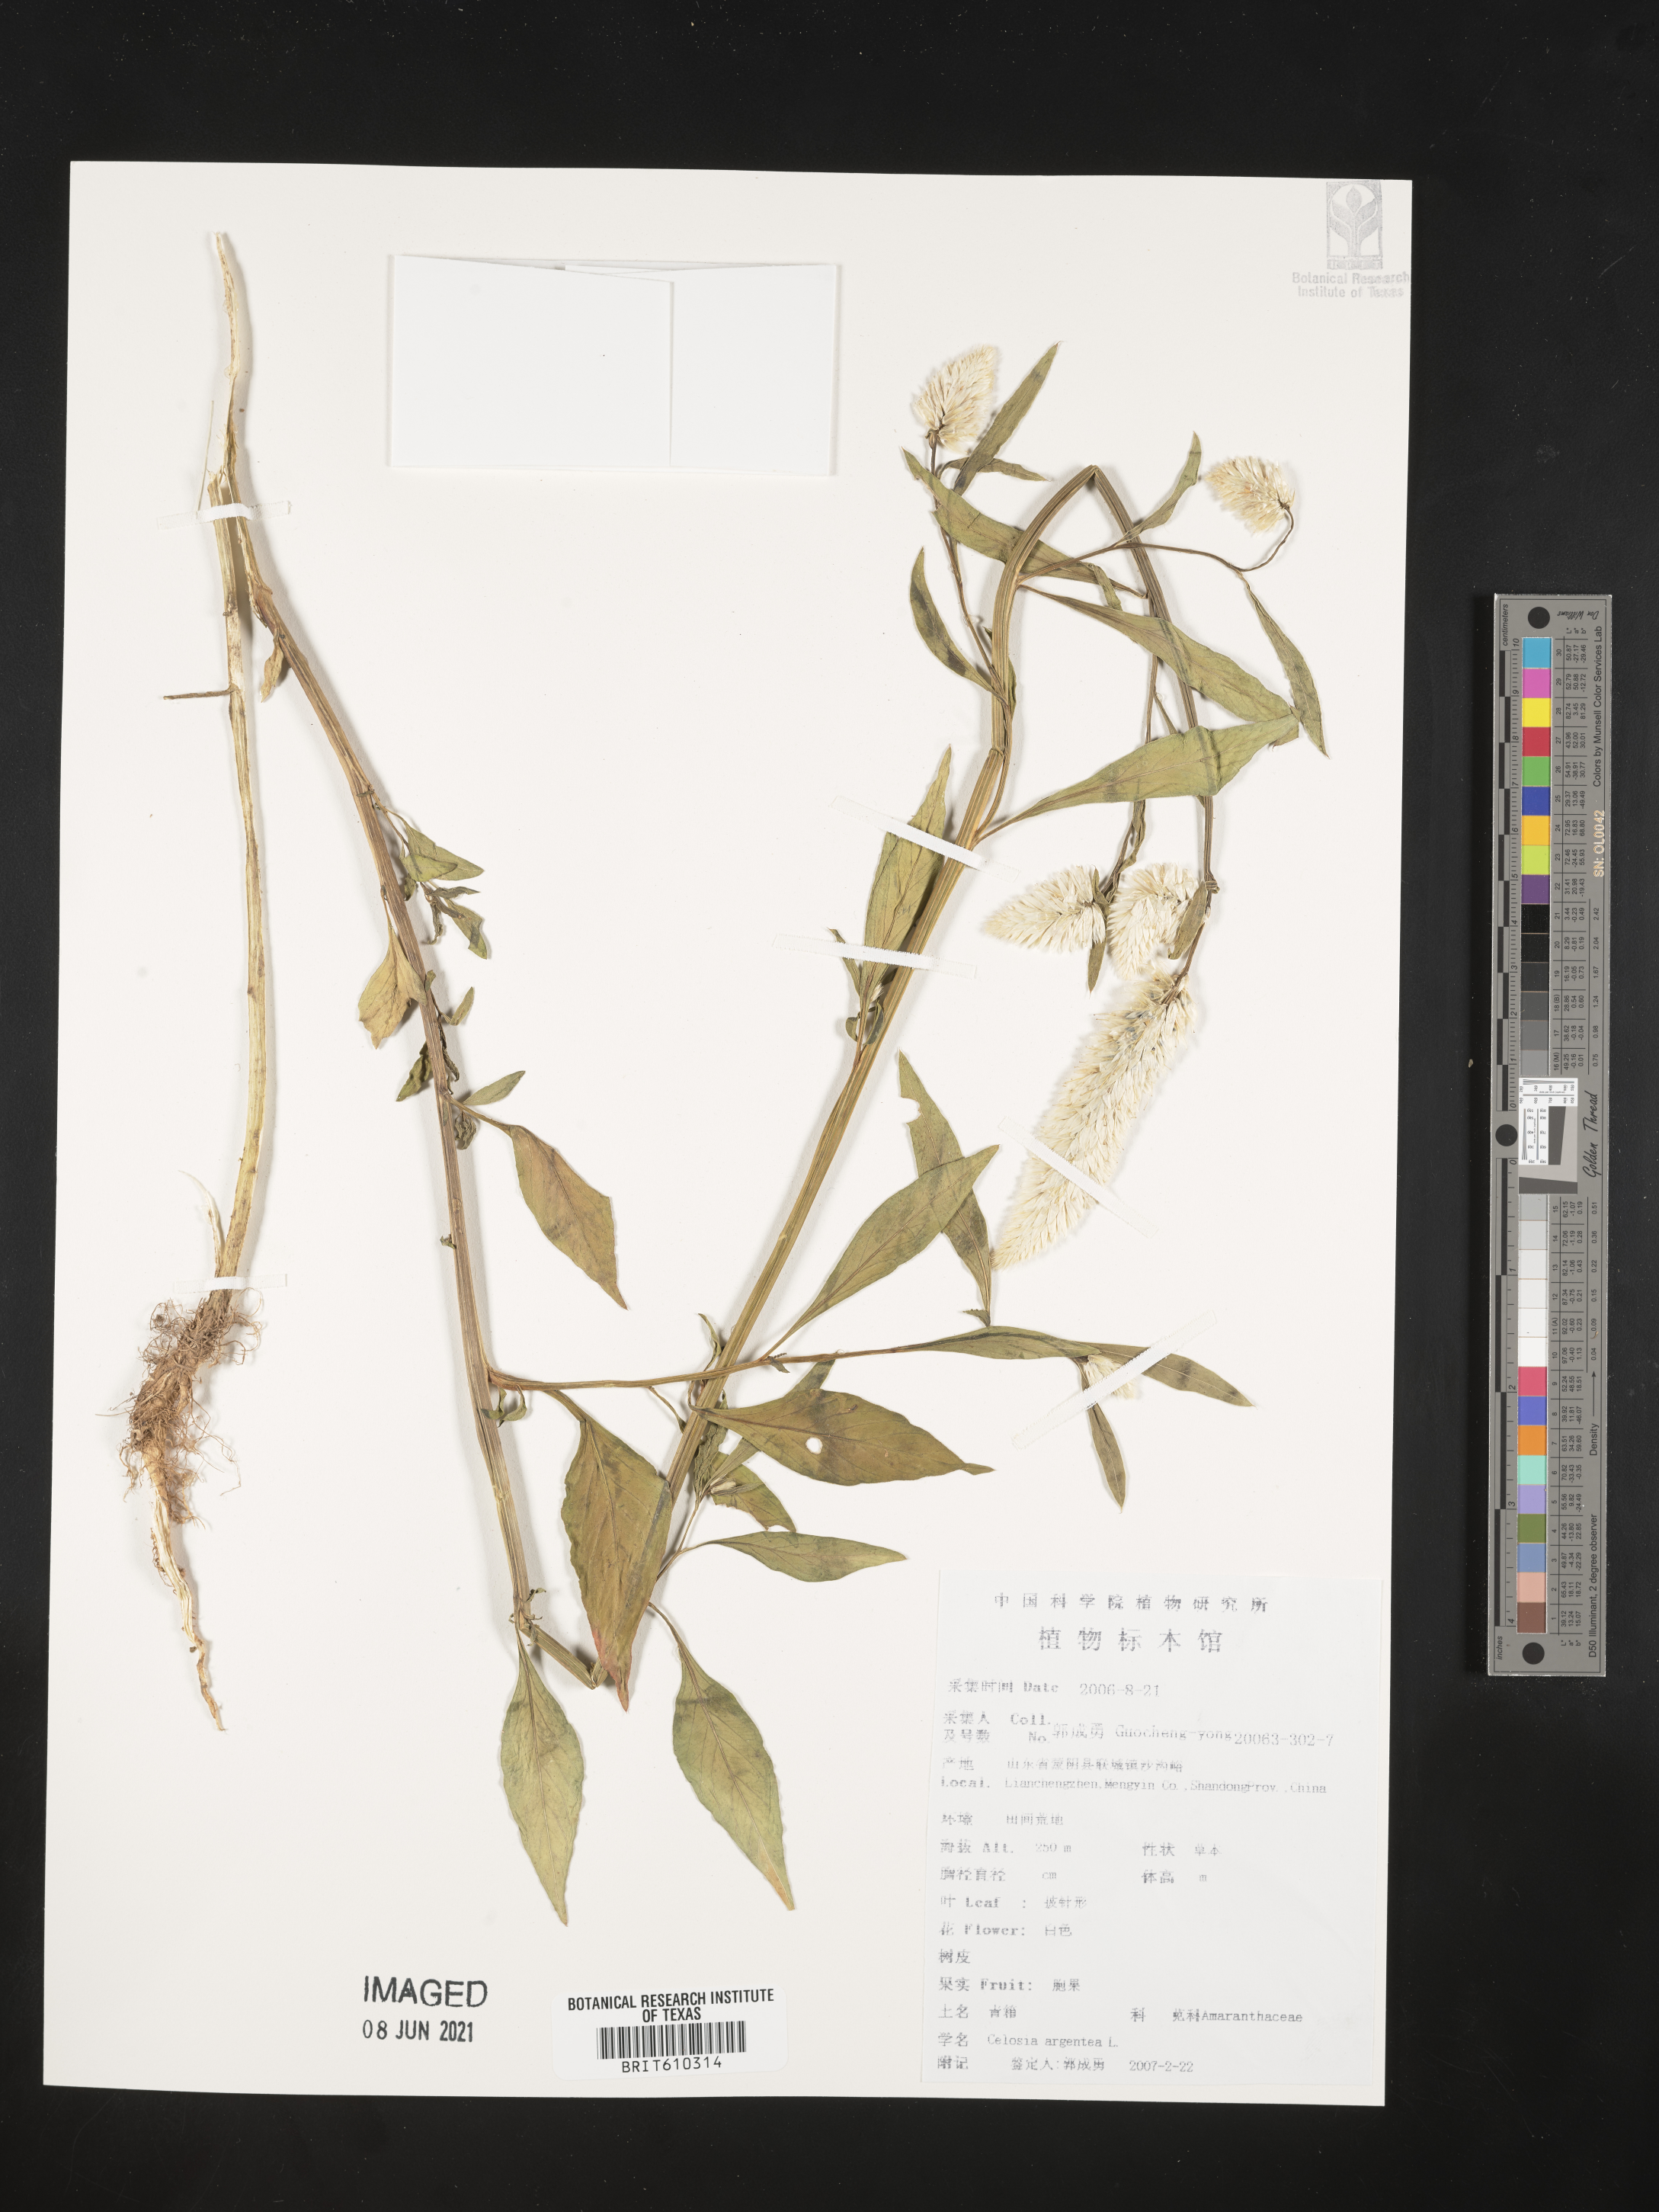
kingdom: Plantae
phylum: Tracheophyta
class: Magnoliopsida
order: Caryophyllales
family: Amaranthaceae
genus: Celosia
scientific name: Celosia argentea
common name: Feather cockscomb
